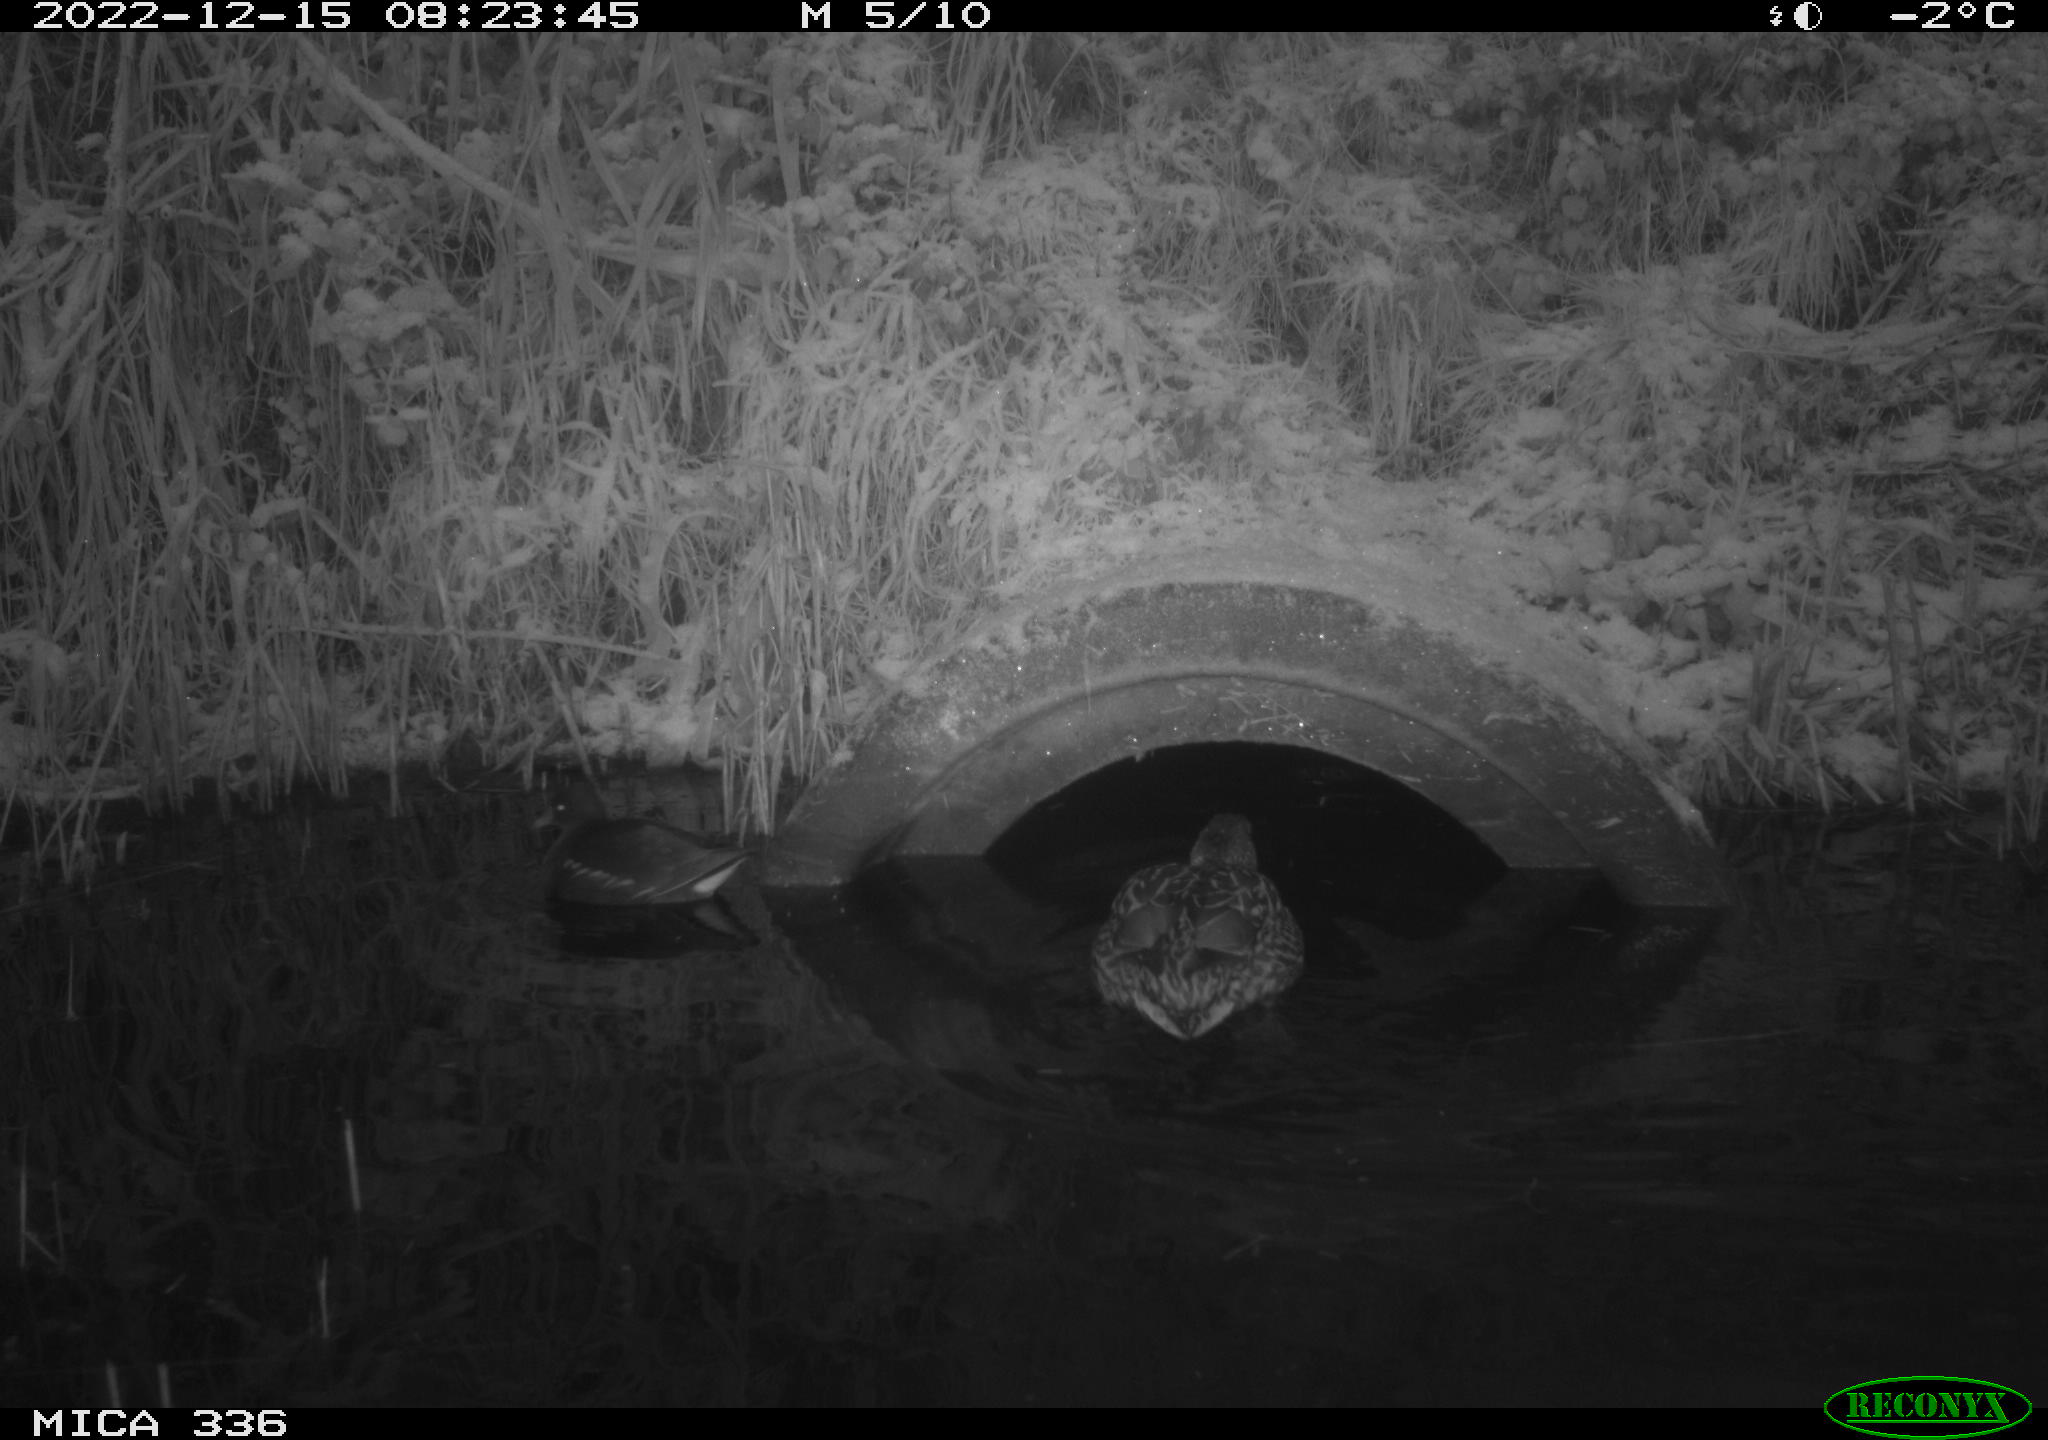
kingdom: Animalia
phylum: Chordata
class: Aves
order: Gruiformes
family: Rallidae
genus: Gallinula
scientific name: Gallinula chloropus
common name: Common moorhen
